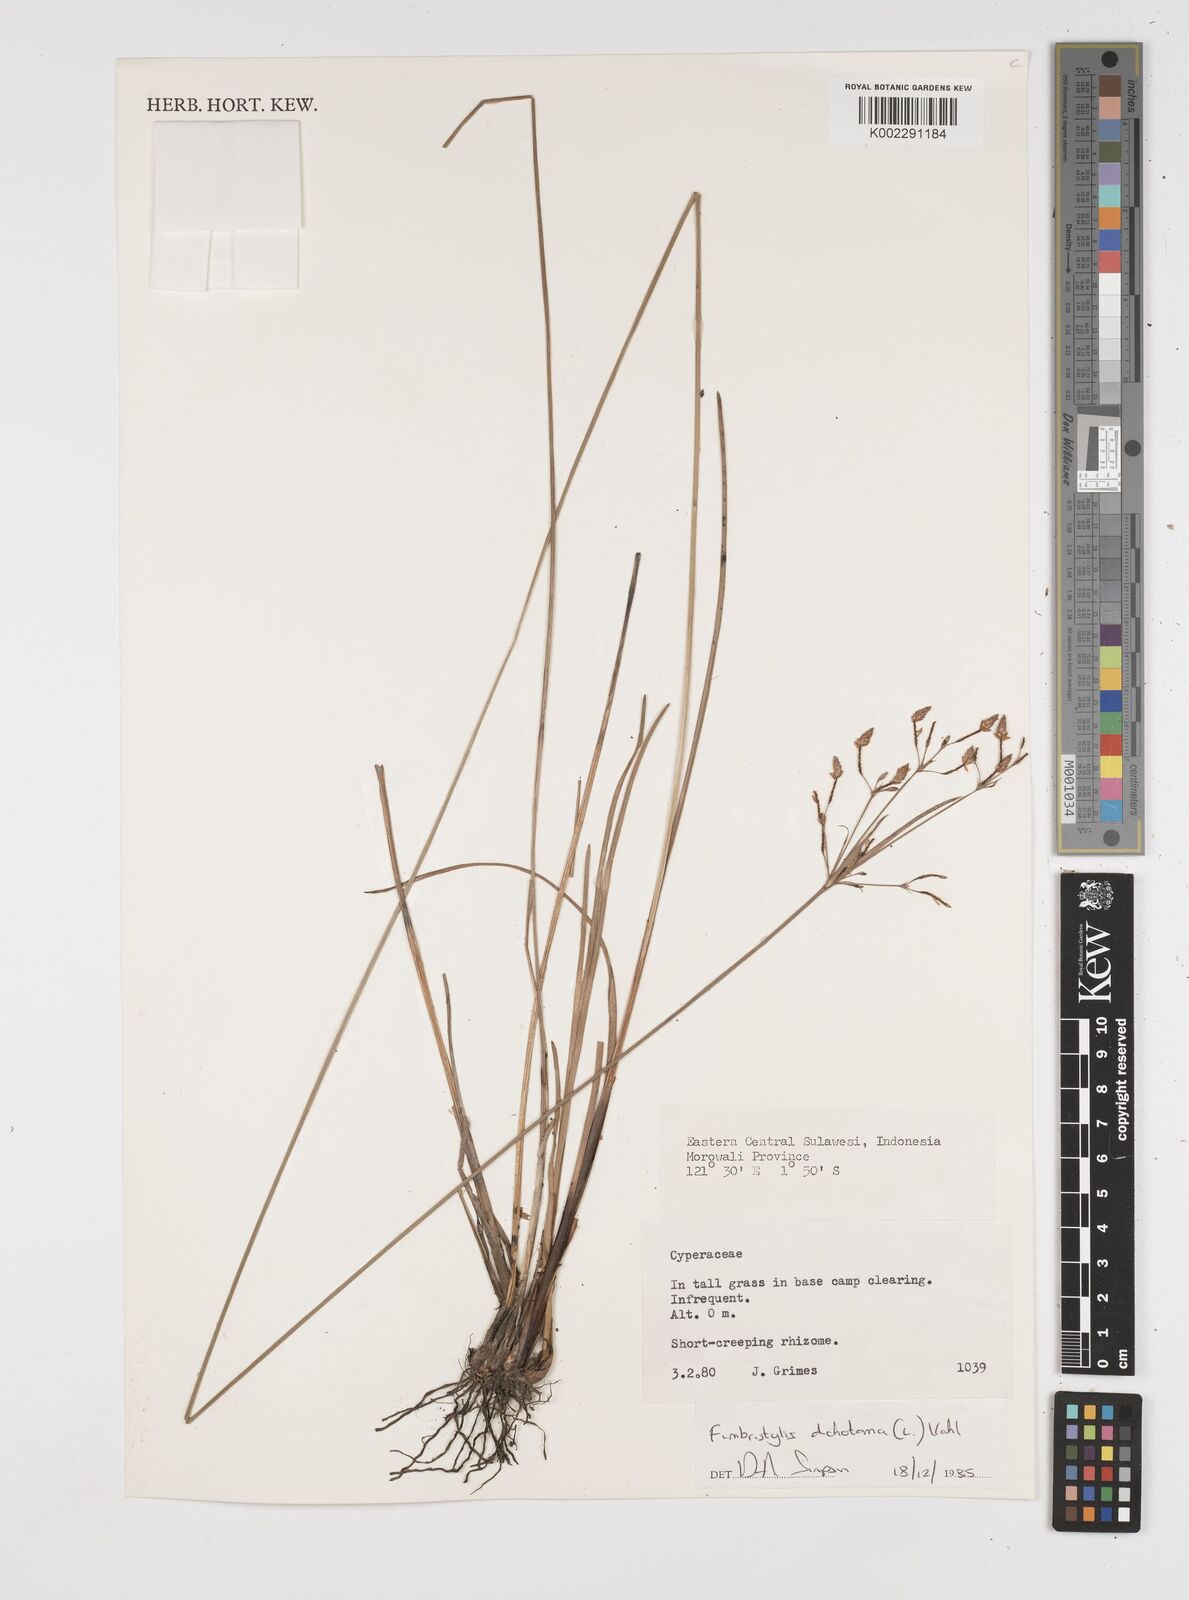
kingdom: Plantae
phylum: Tracheophyta
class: Liliopsida
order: Poales
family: Cyperaceae
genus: Fimbristylis
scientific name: Fimbristylis dichotoma
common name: Forked fimbry
